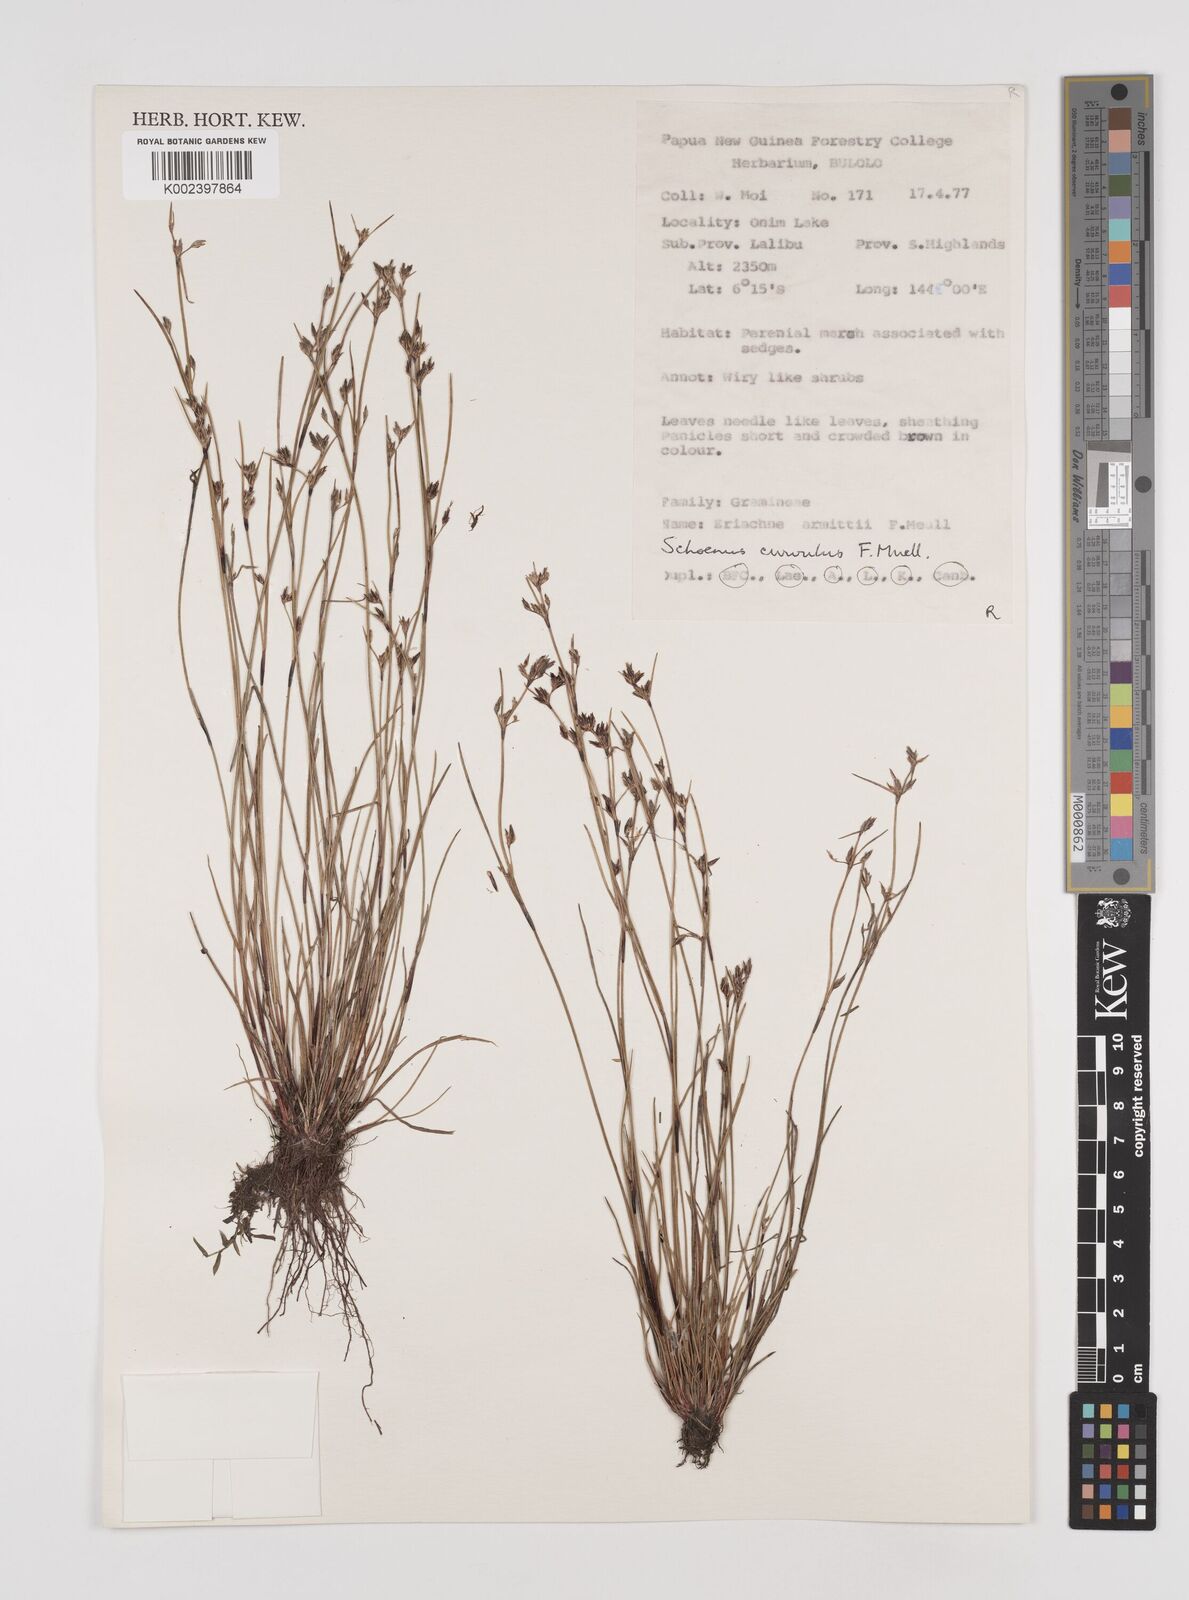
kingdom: Plantae
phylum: Tracheophyta
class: Liliopsida
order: Poales
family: Cyperaceae
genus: Schoenus
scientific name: Schoenus curvulus
